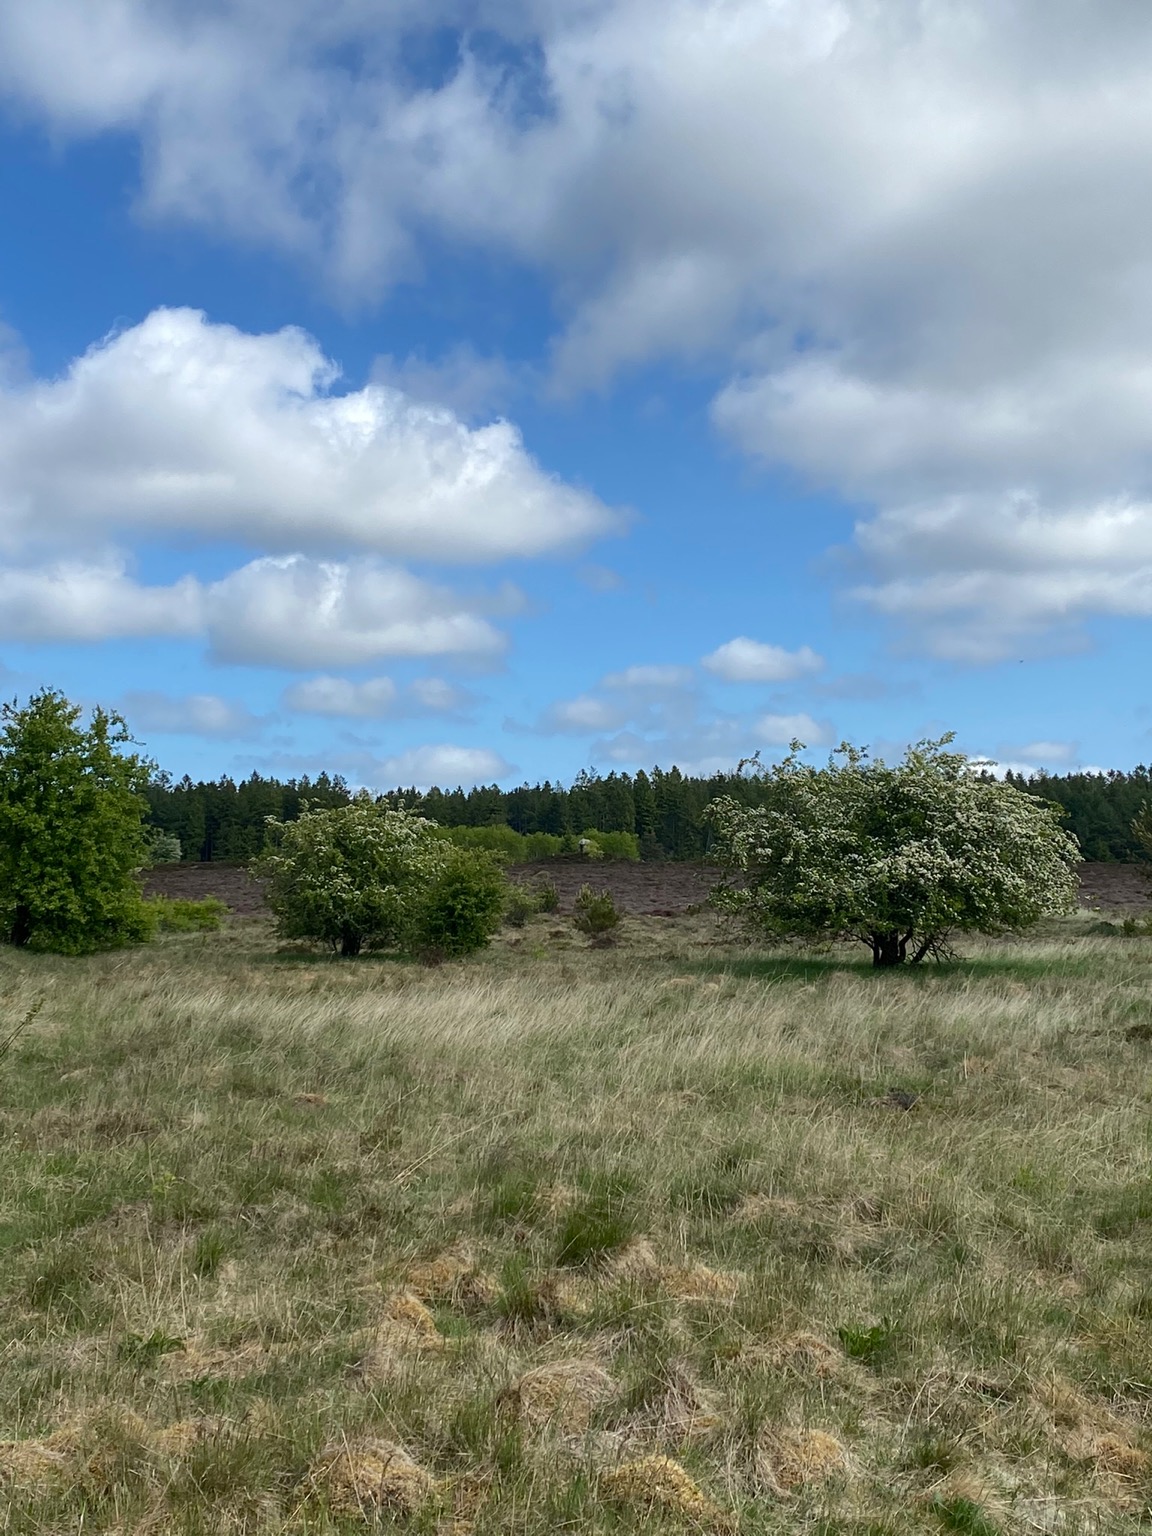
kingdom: Plantae
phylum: Tracheophyta
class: Magnoliopsida
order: Rosales
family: Rosaceae
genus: Crataegus
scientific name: Crataegus monogyna
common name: Engriflet hvidtjørn
